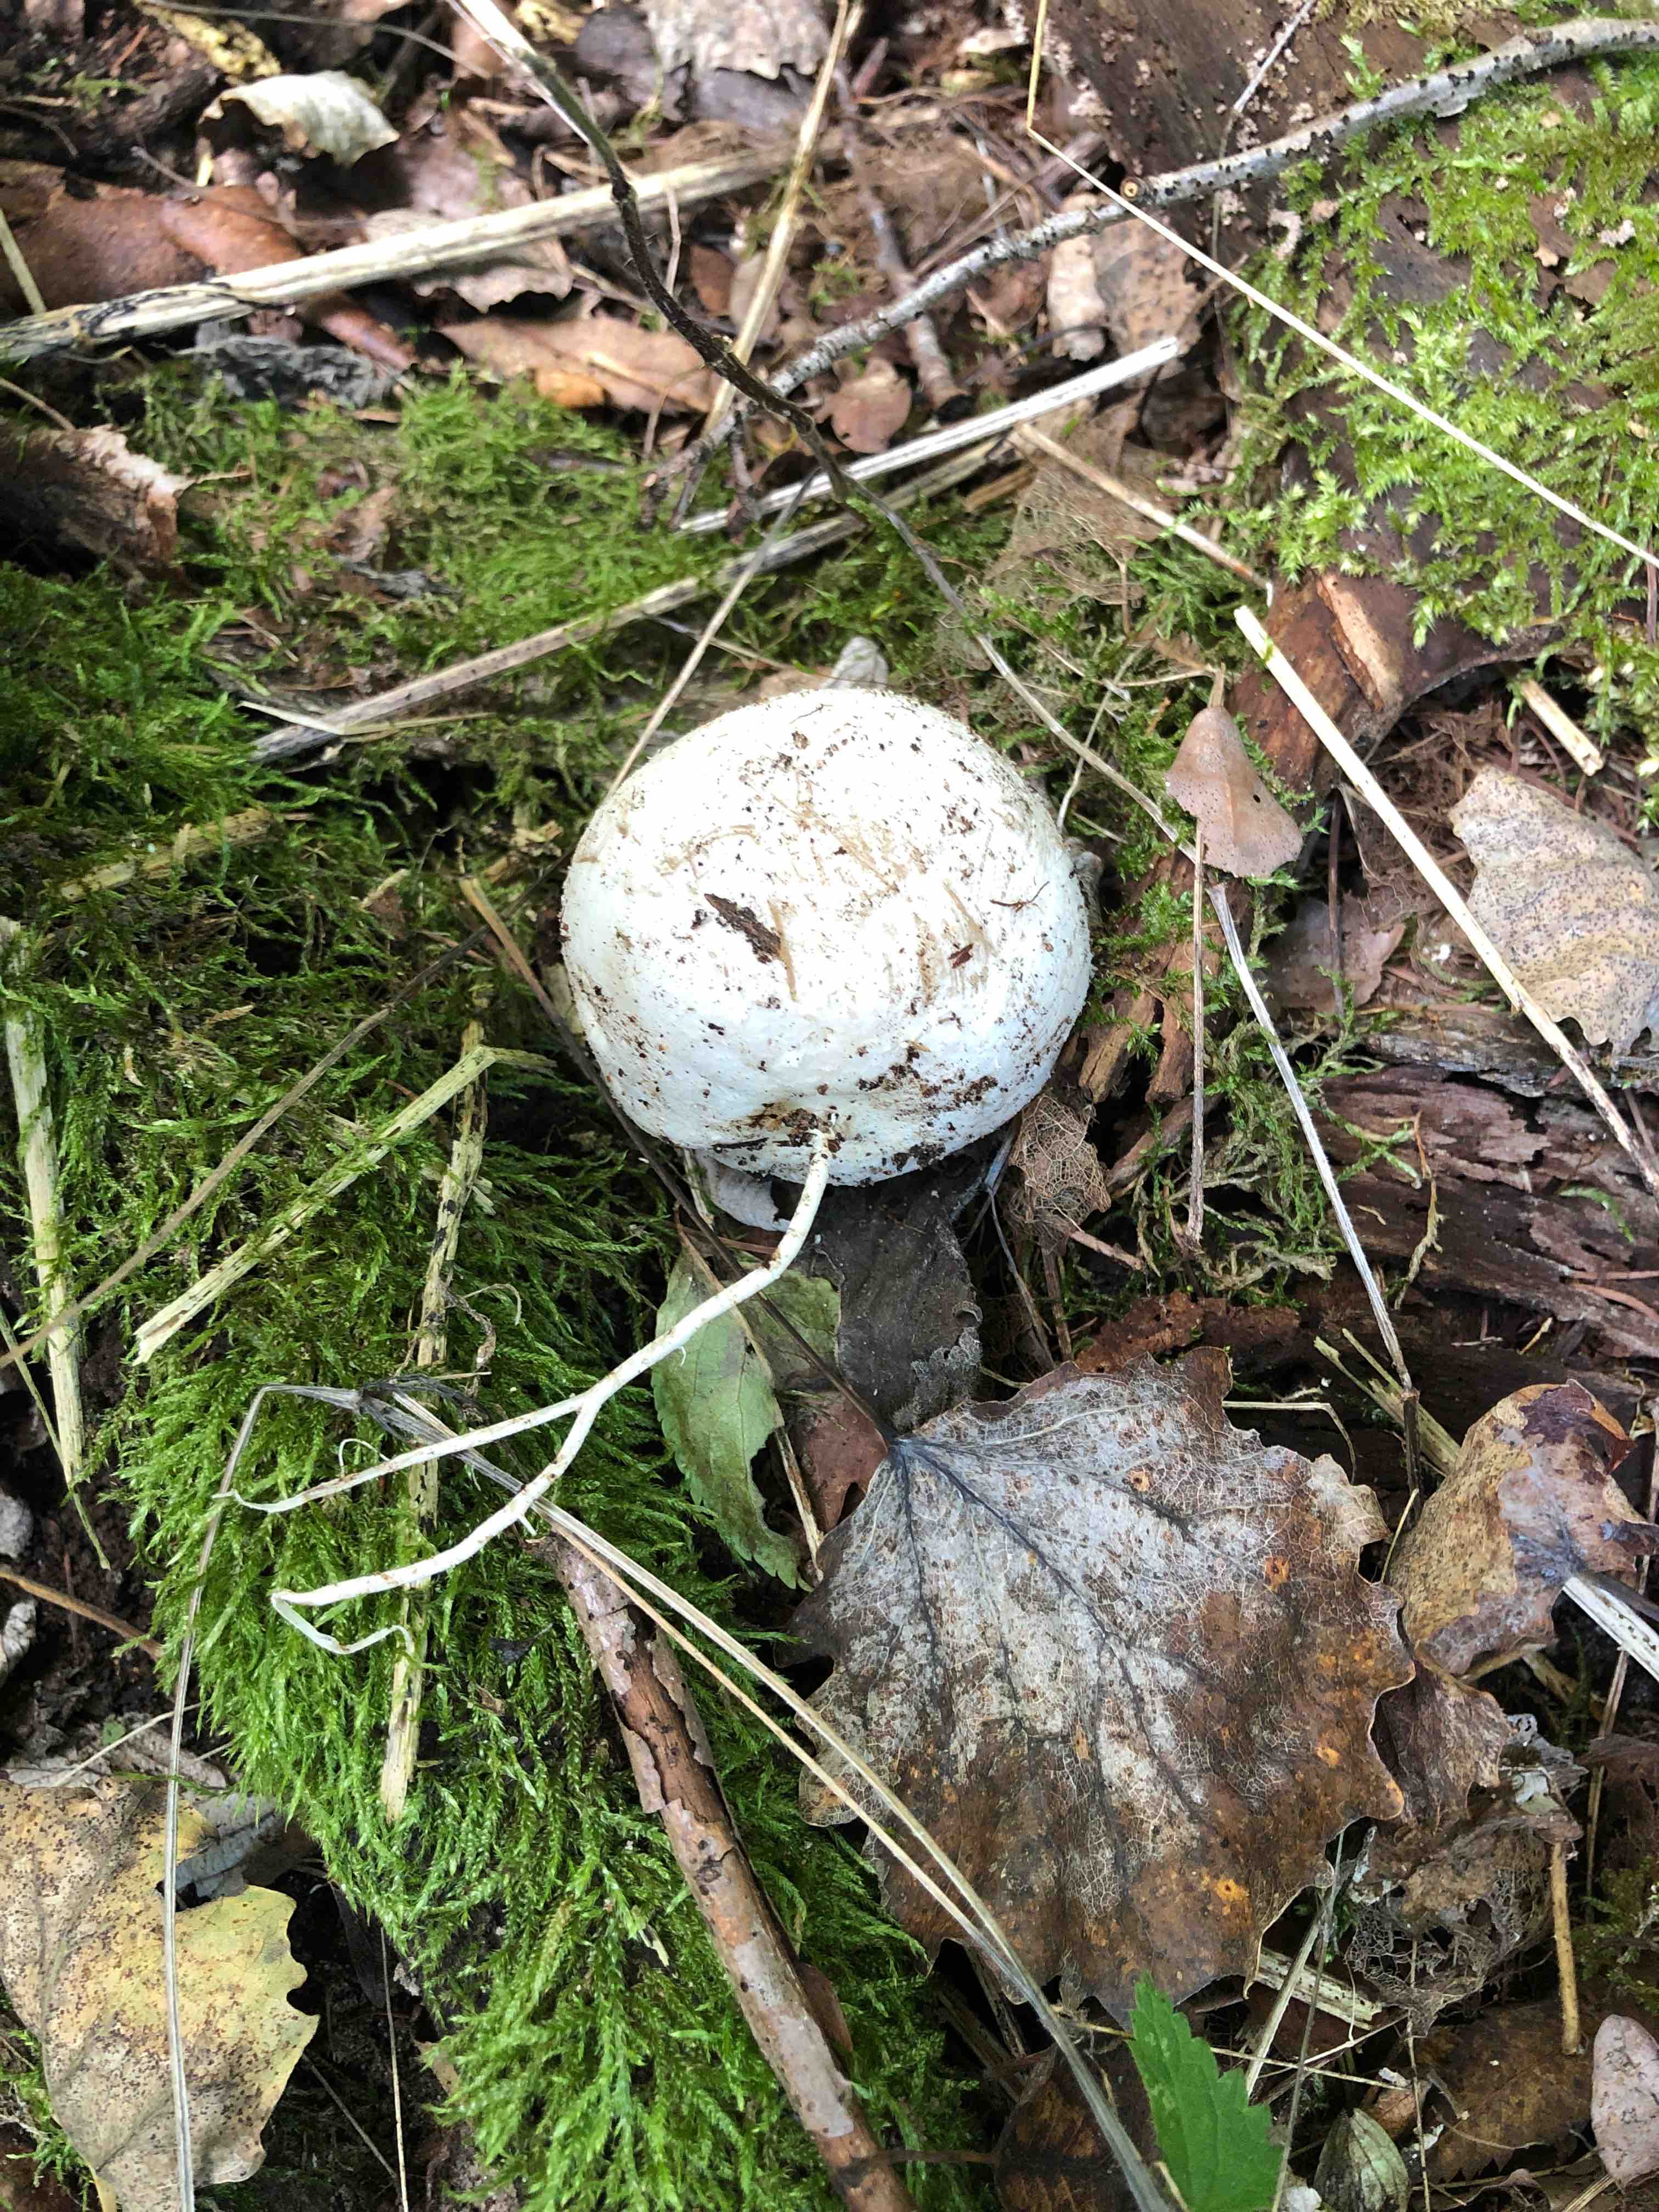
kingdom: Fungi
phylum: Basidiomycota
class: Agaricomycetes
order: Phallales
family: Phallaceae
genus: Phallus
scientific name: Phallus impudicus
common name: almindelig stinksvamp
